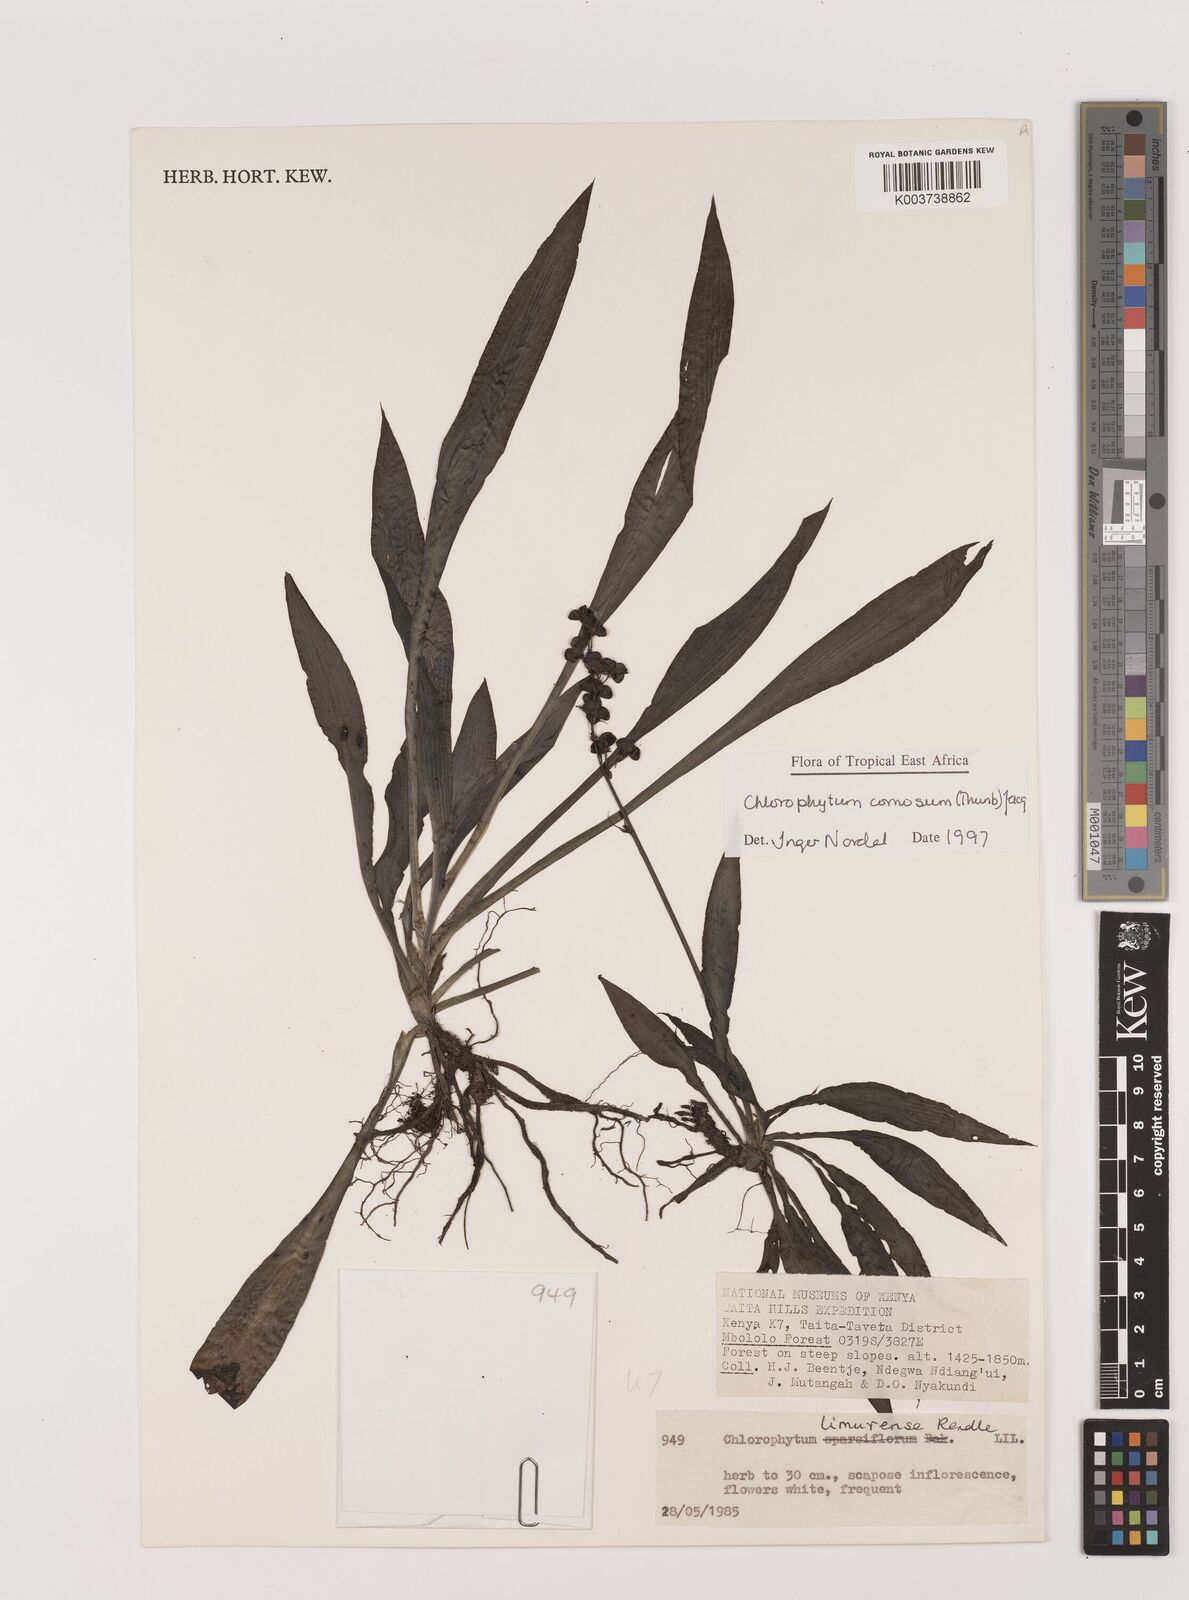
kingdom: Plantae
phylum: Tracheophyta
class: Liliopsida
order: Asparagales
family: Asparagaceae
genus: Chlorophytum
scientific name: Chlorophytum comosum
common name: Spider plant
